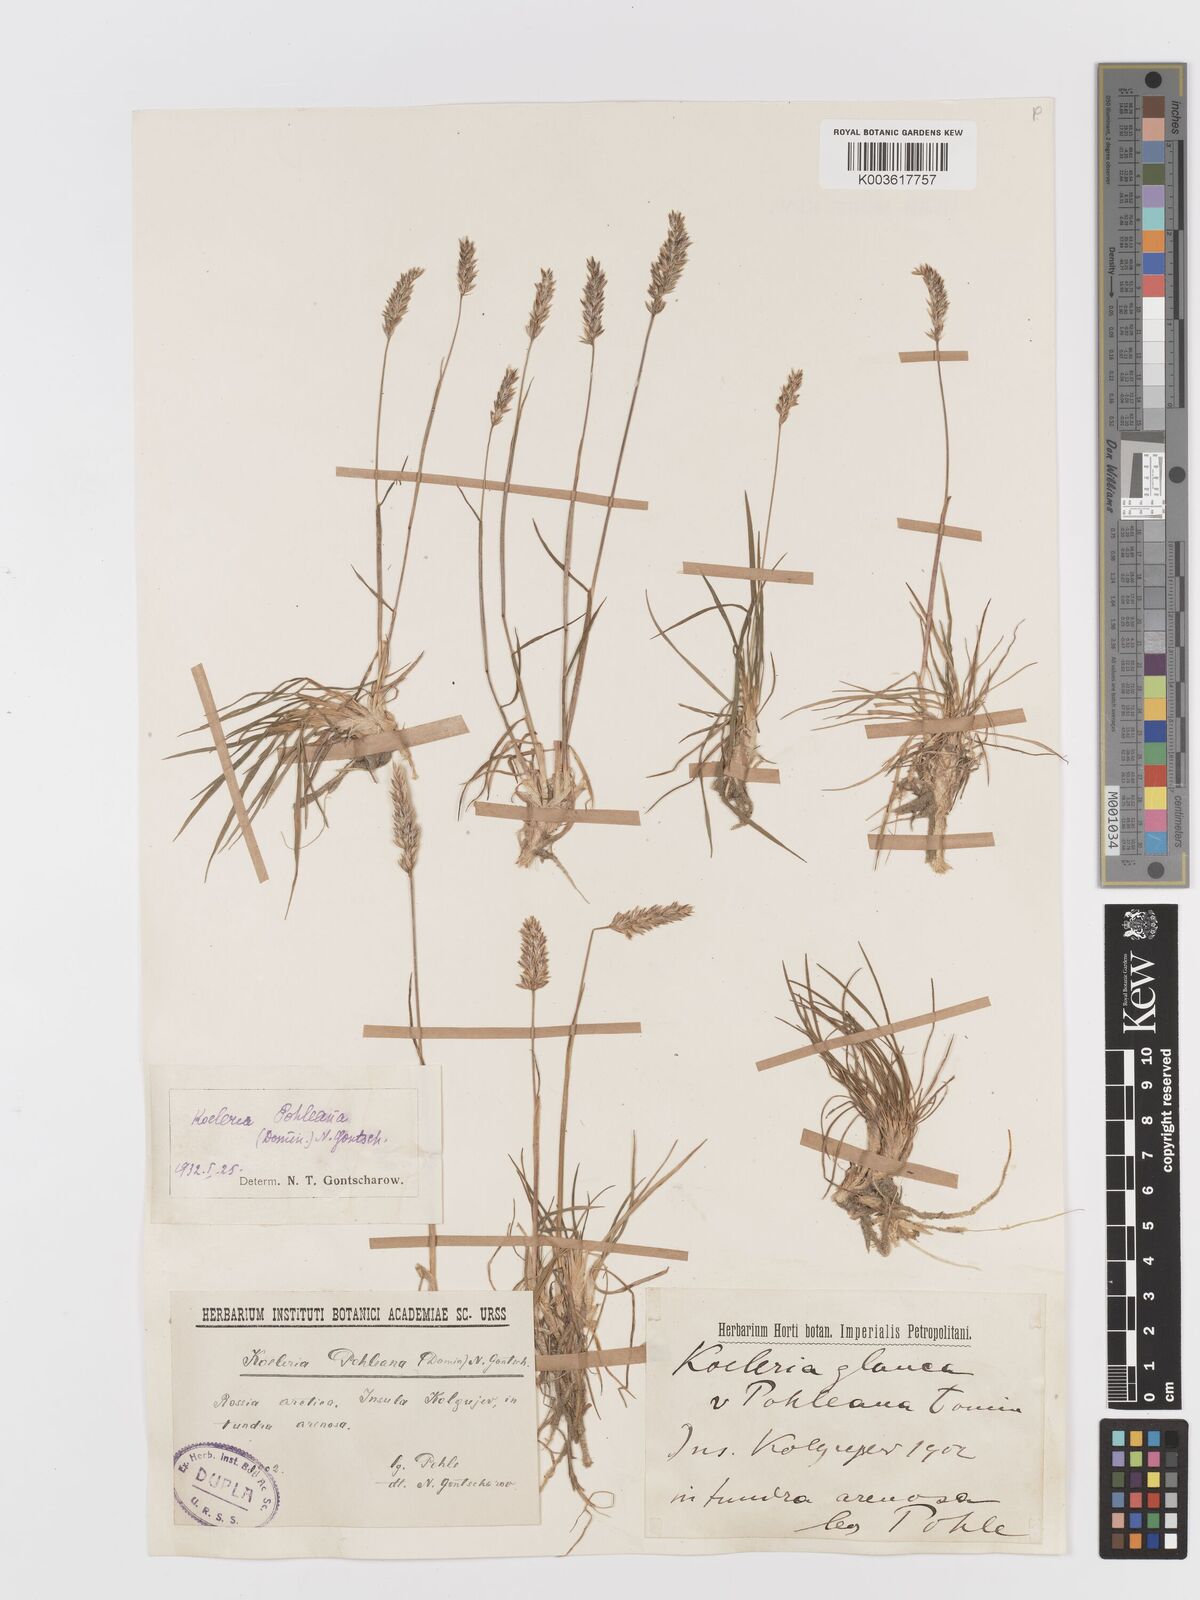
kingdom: Plantae
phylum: Tracheophyta
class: Liliopsida
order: Poales
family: Poaceae
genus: Koeleria
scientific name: Koeleria glauca
